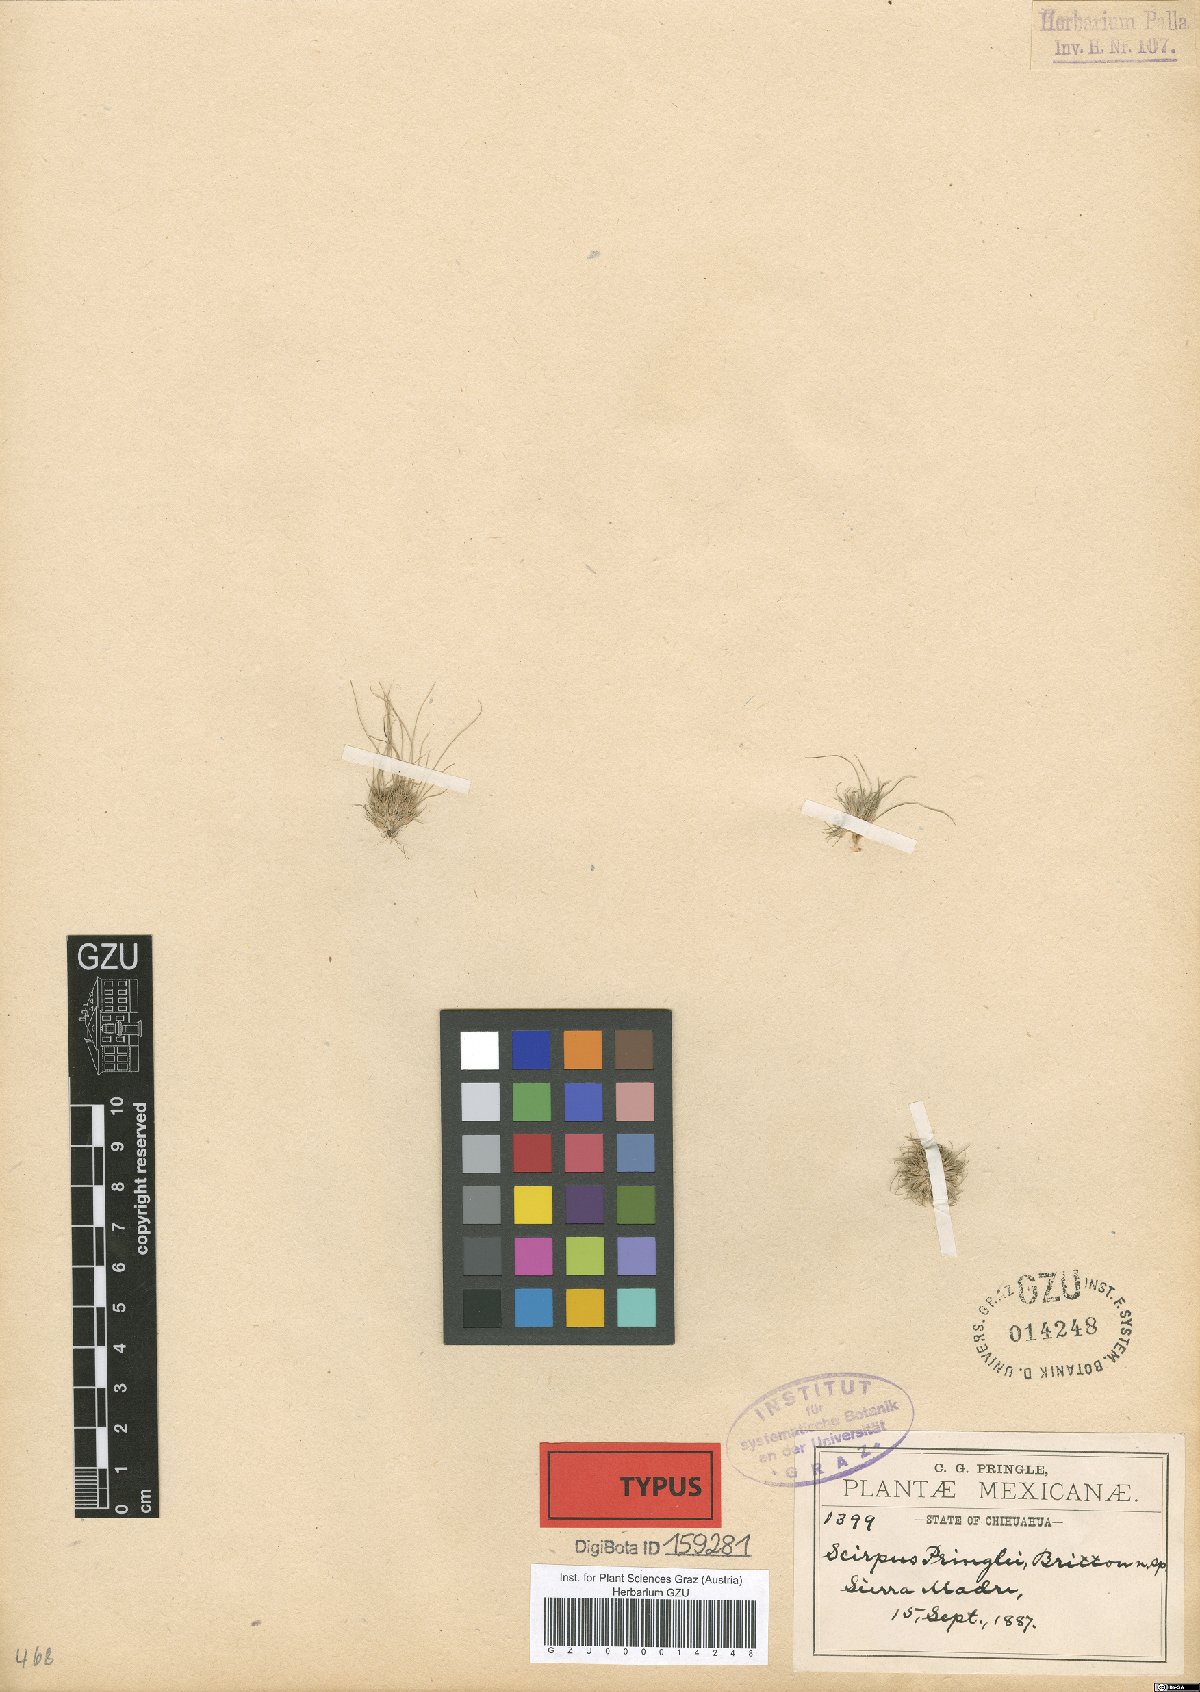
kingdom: Plantae
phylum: Tracheophyta
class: Liliopsida
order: Poales
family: Cyperaceae
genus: Bulbostylis
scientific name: Bulbostylis schaffneri
